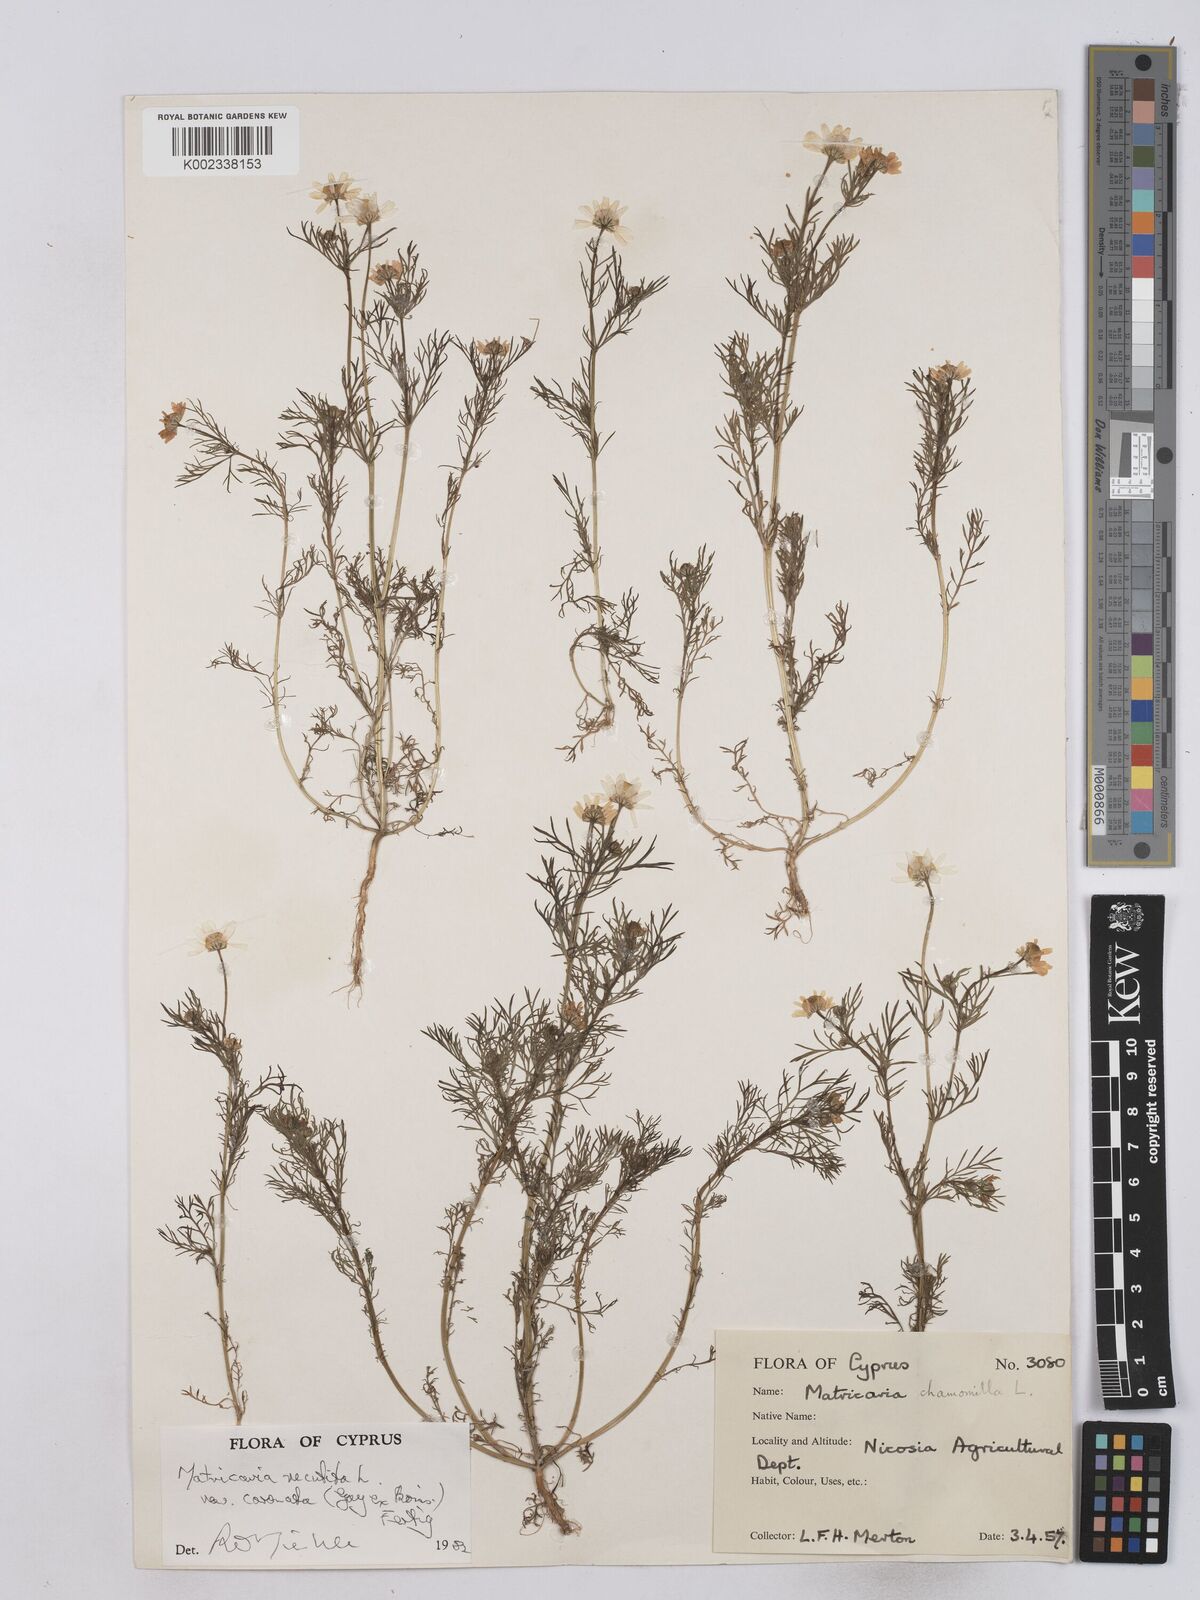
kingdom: Plantae
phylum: Tracheophyta
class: Magnoliopsida
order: Asterales
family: Asteraceae
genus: Matricaria
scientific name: Matricaria chamomilla
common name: Scented mayweed
